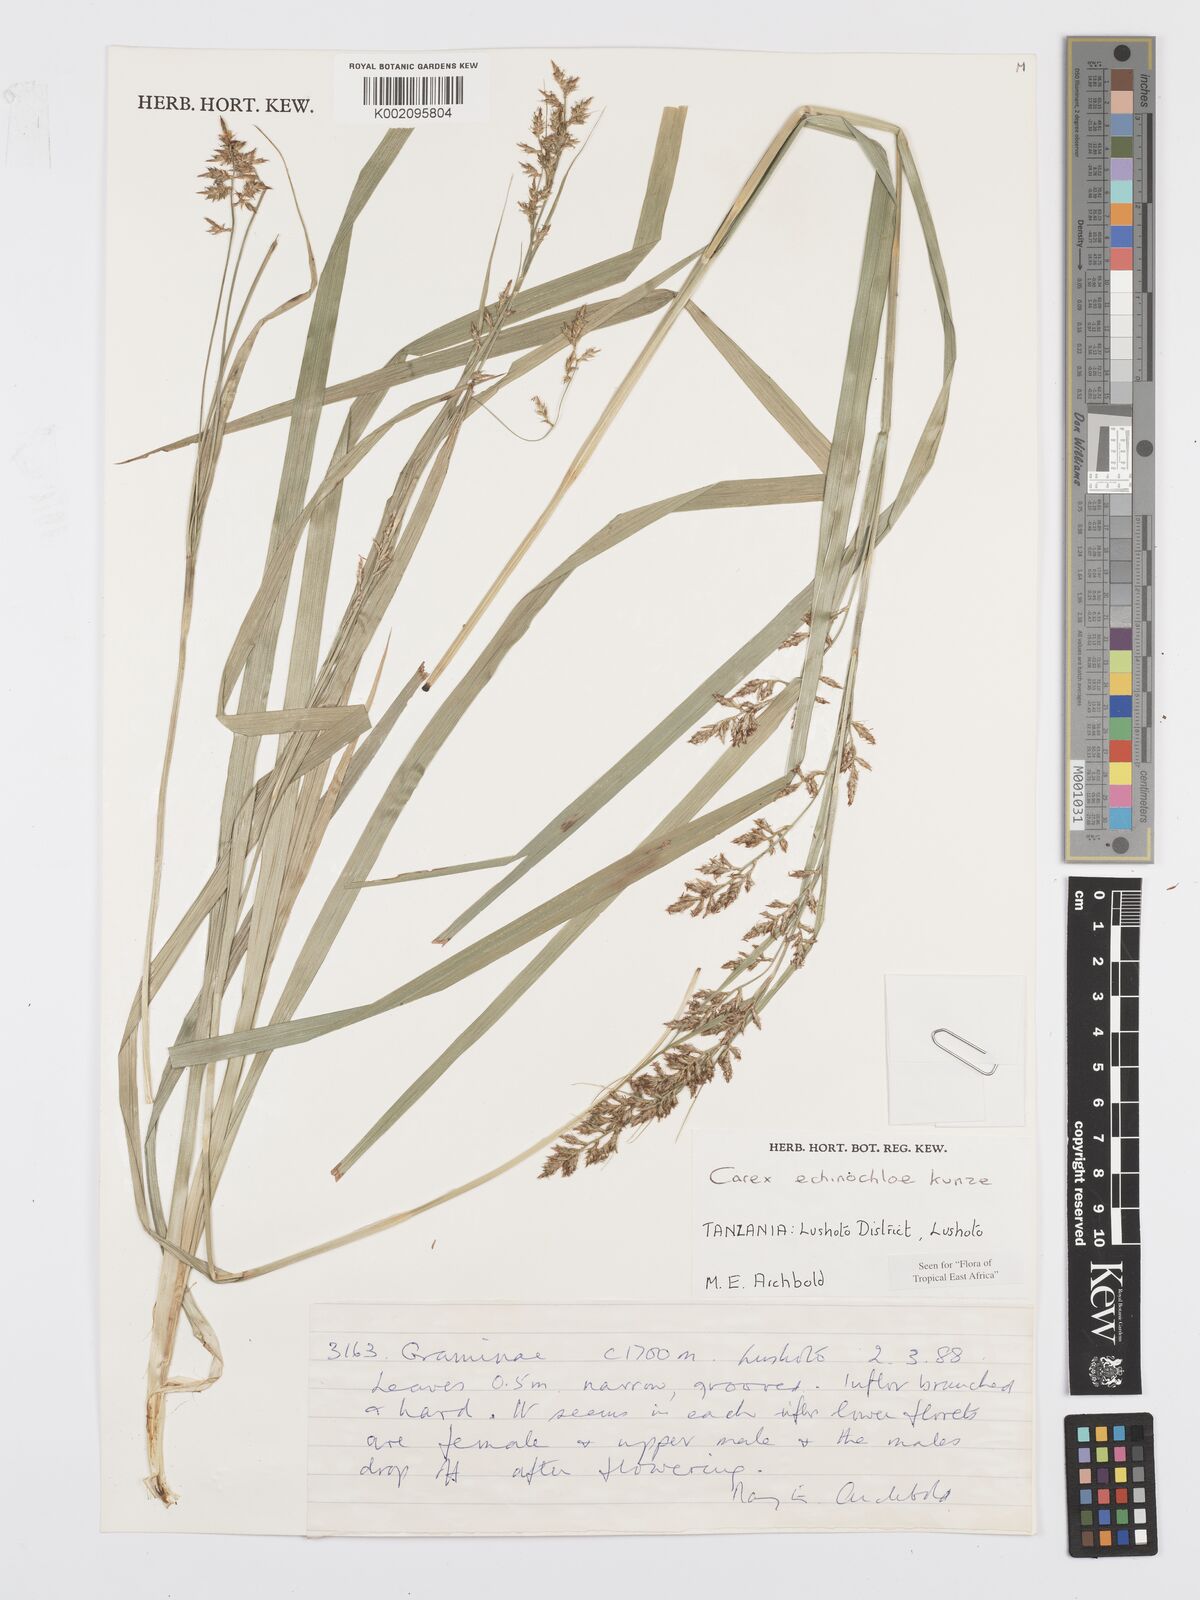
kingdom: Plantae
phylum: Tracheophyta
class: Liliopsida
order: Poales
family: Cyperaceae
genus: Carex
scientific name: Carex echinochloe
